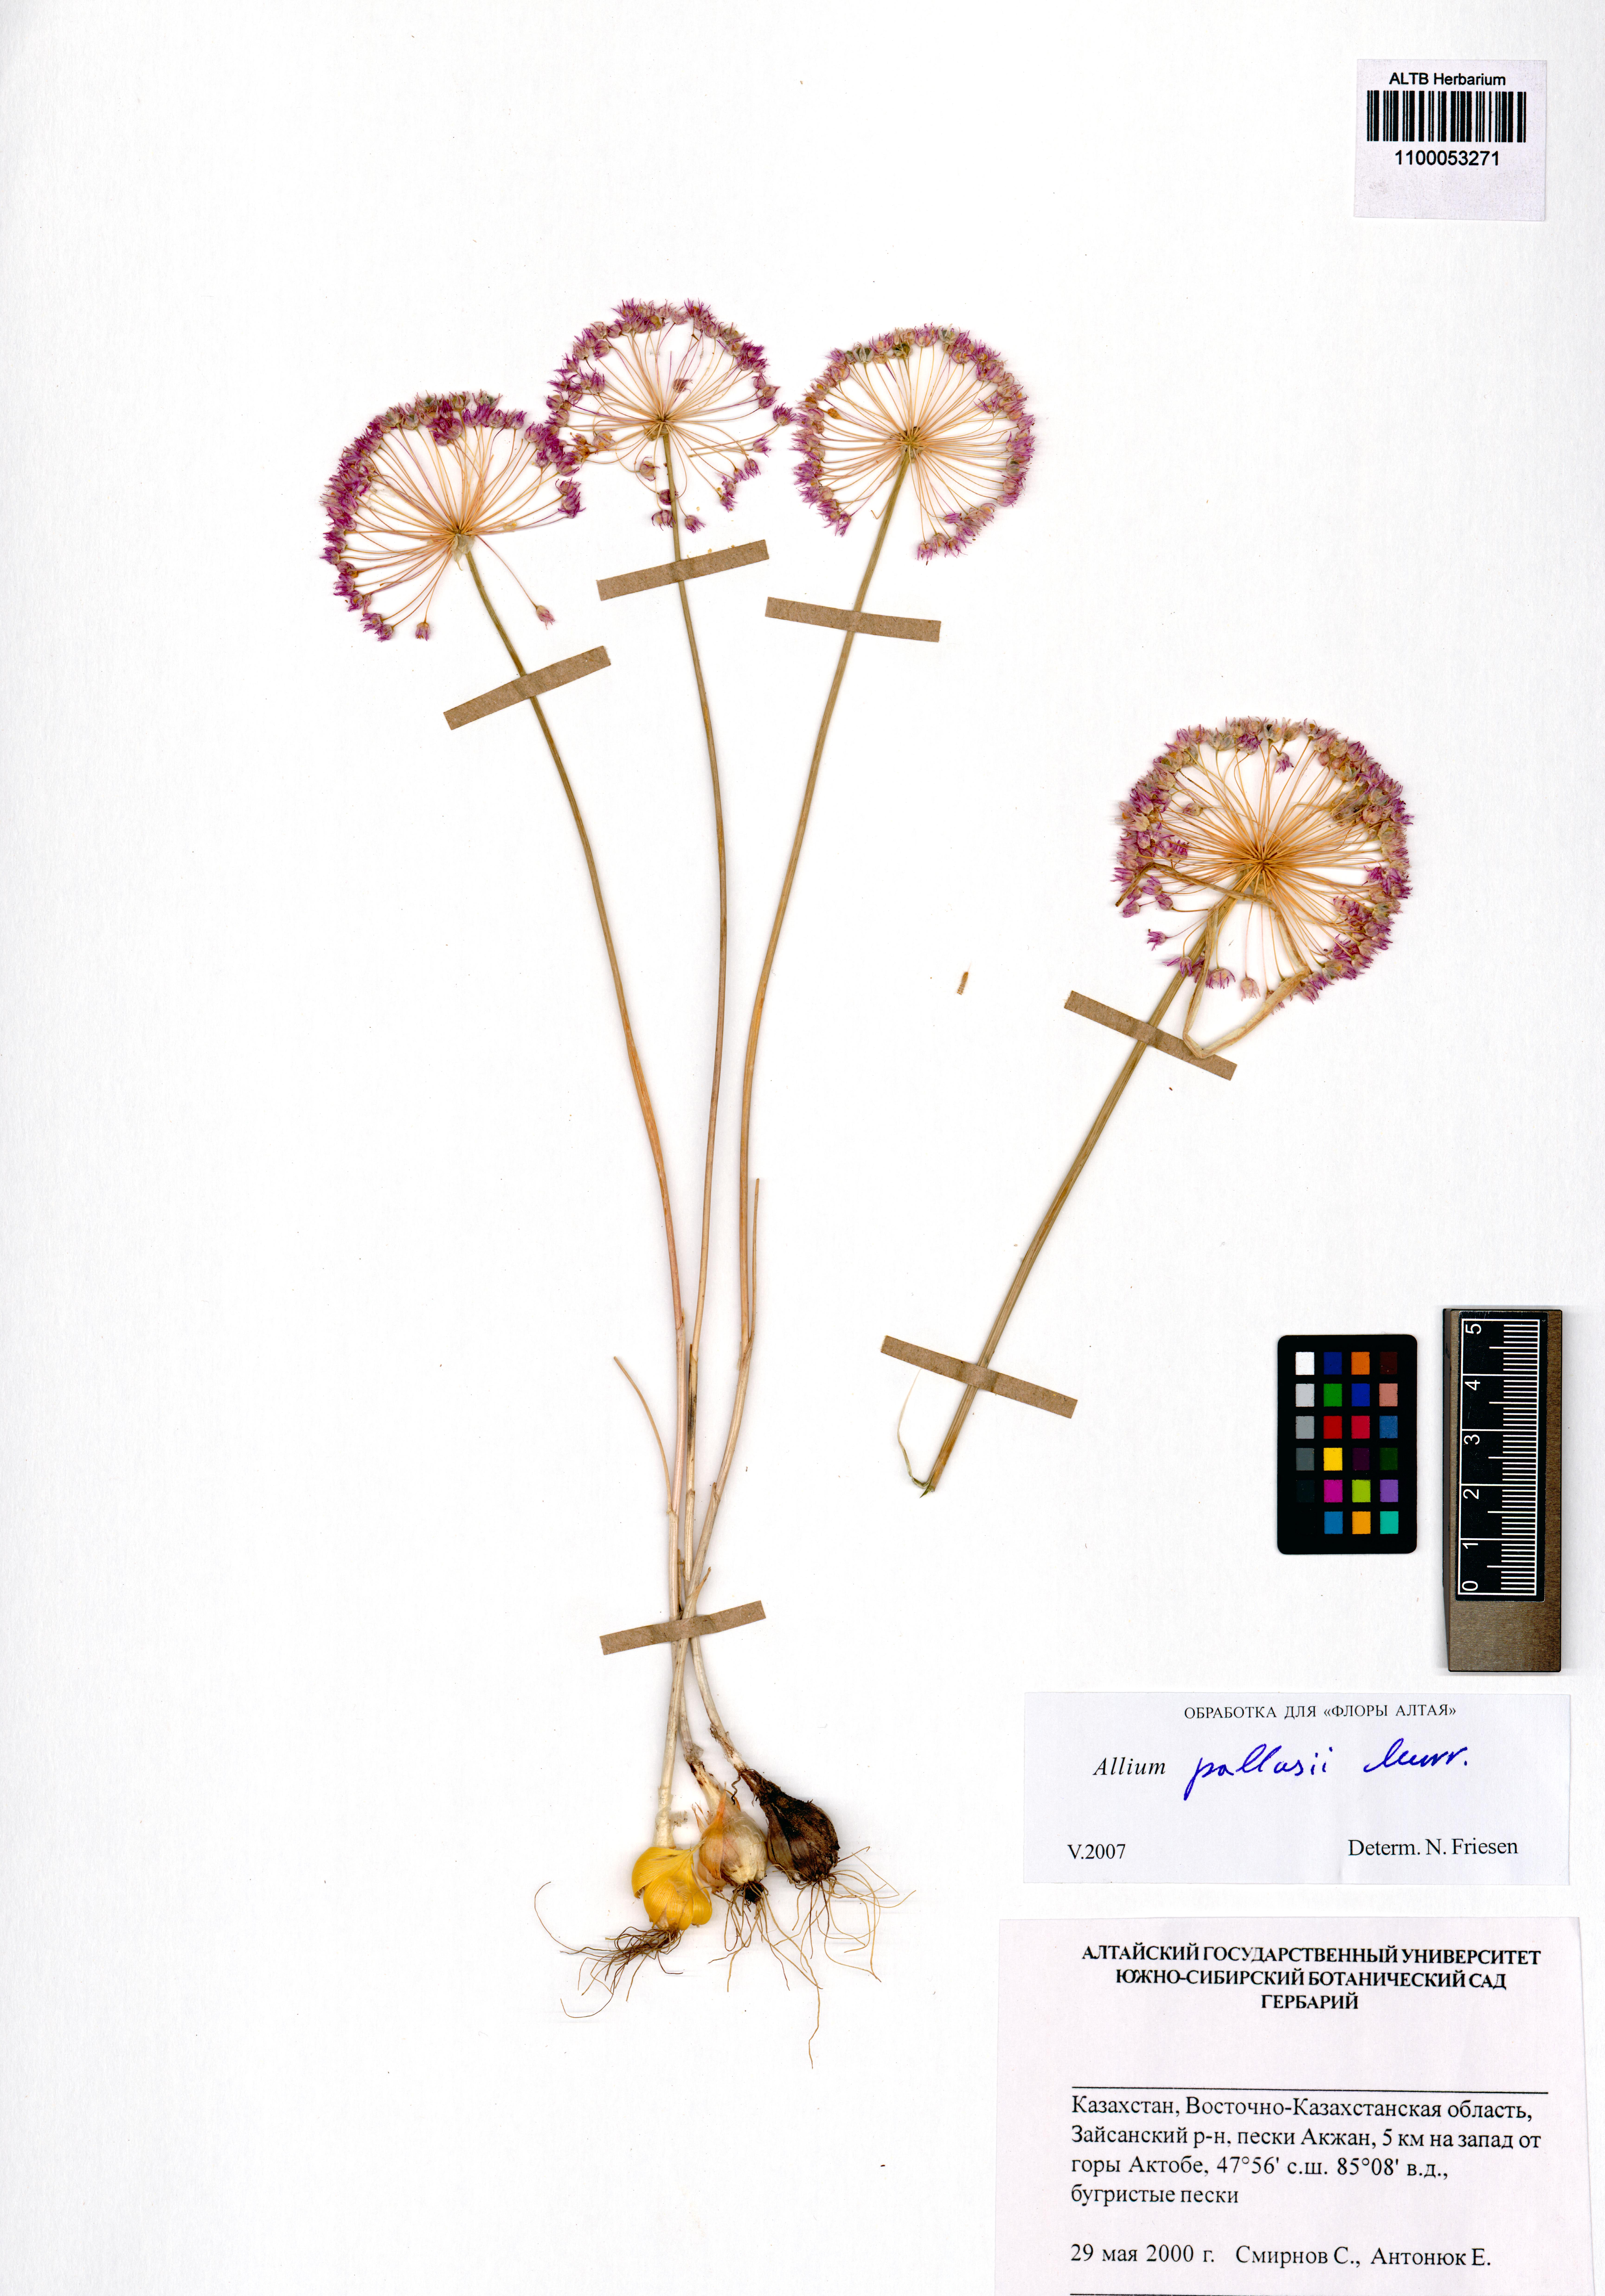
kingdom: Plantae
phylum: Tracheophyta
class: Liliopsida
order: Asparagales
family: Amaryllidaceae
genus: Allium
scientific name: Allium pallasii
